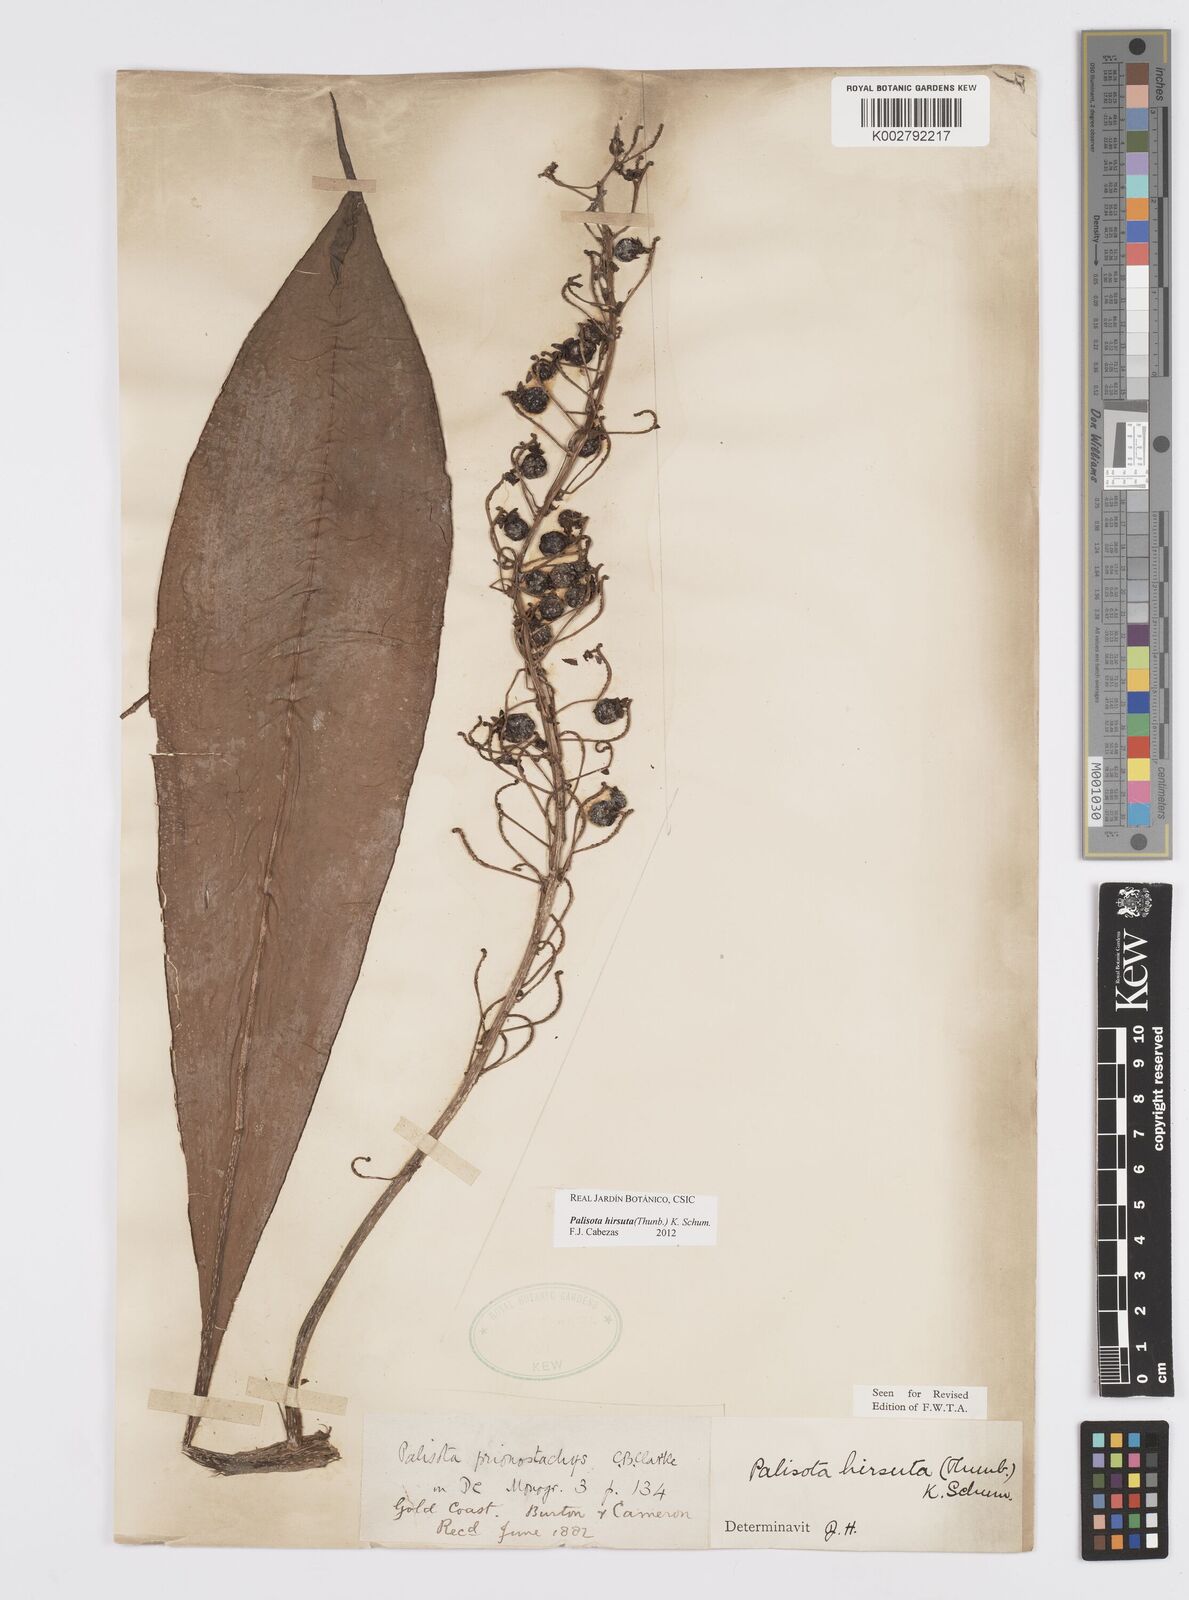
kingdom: Plantae
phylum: Tracheophyta
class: Liliopsida
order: Commelinales
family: Commelinaceae
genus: Palisota
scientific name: Palisota hirsuta
